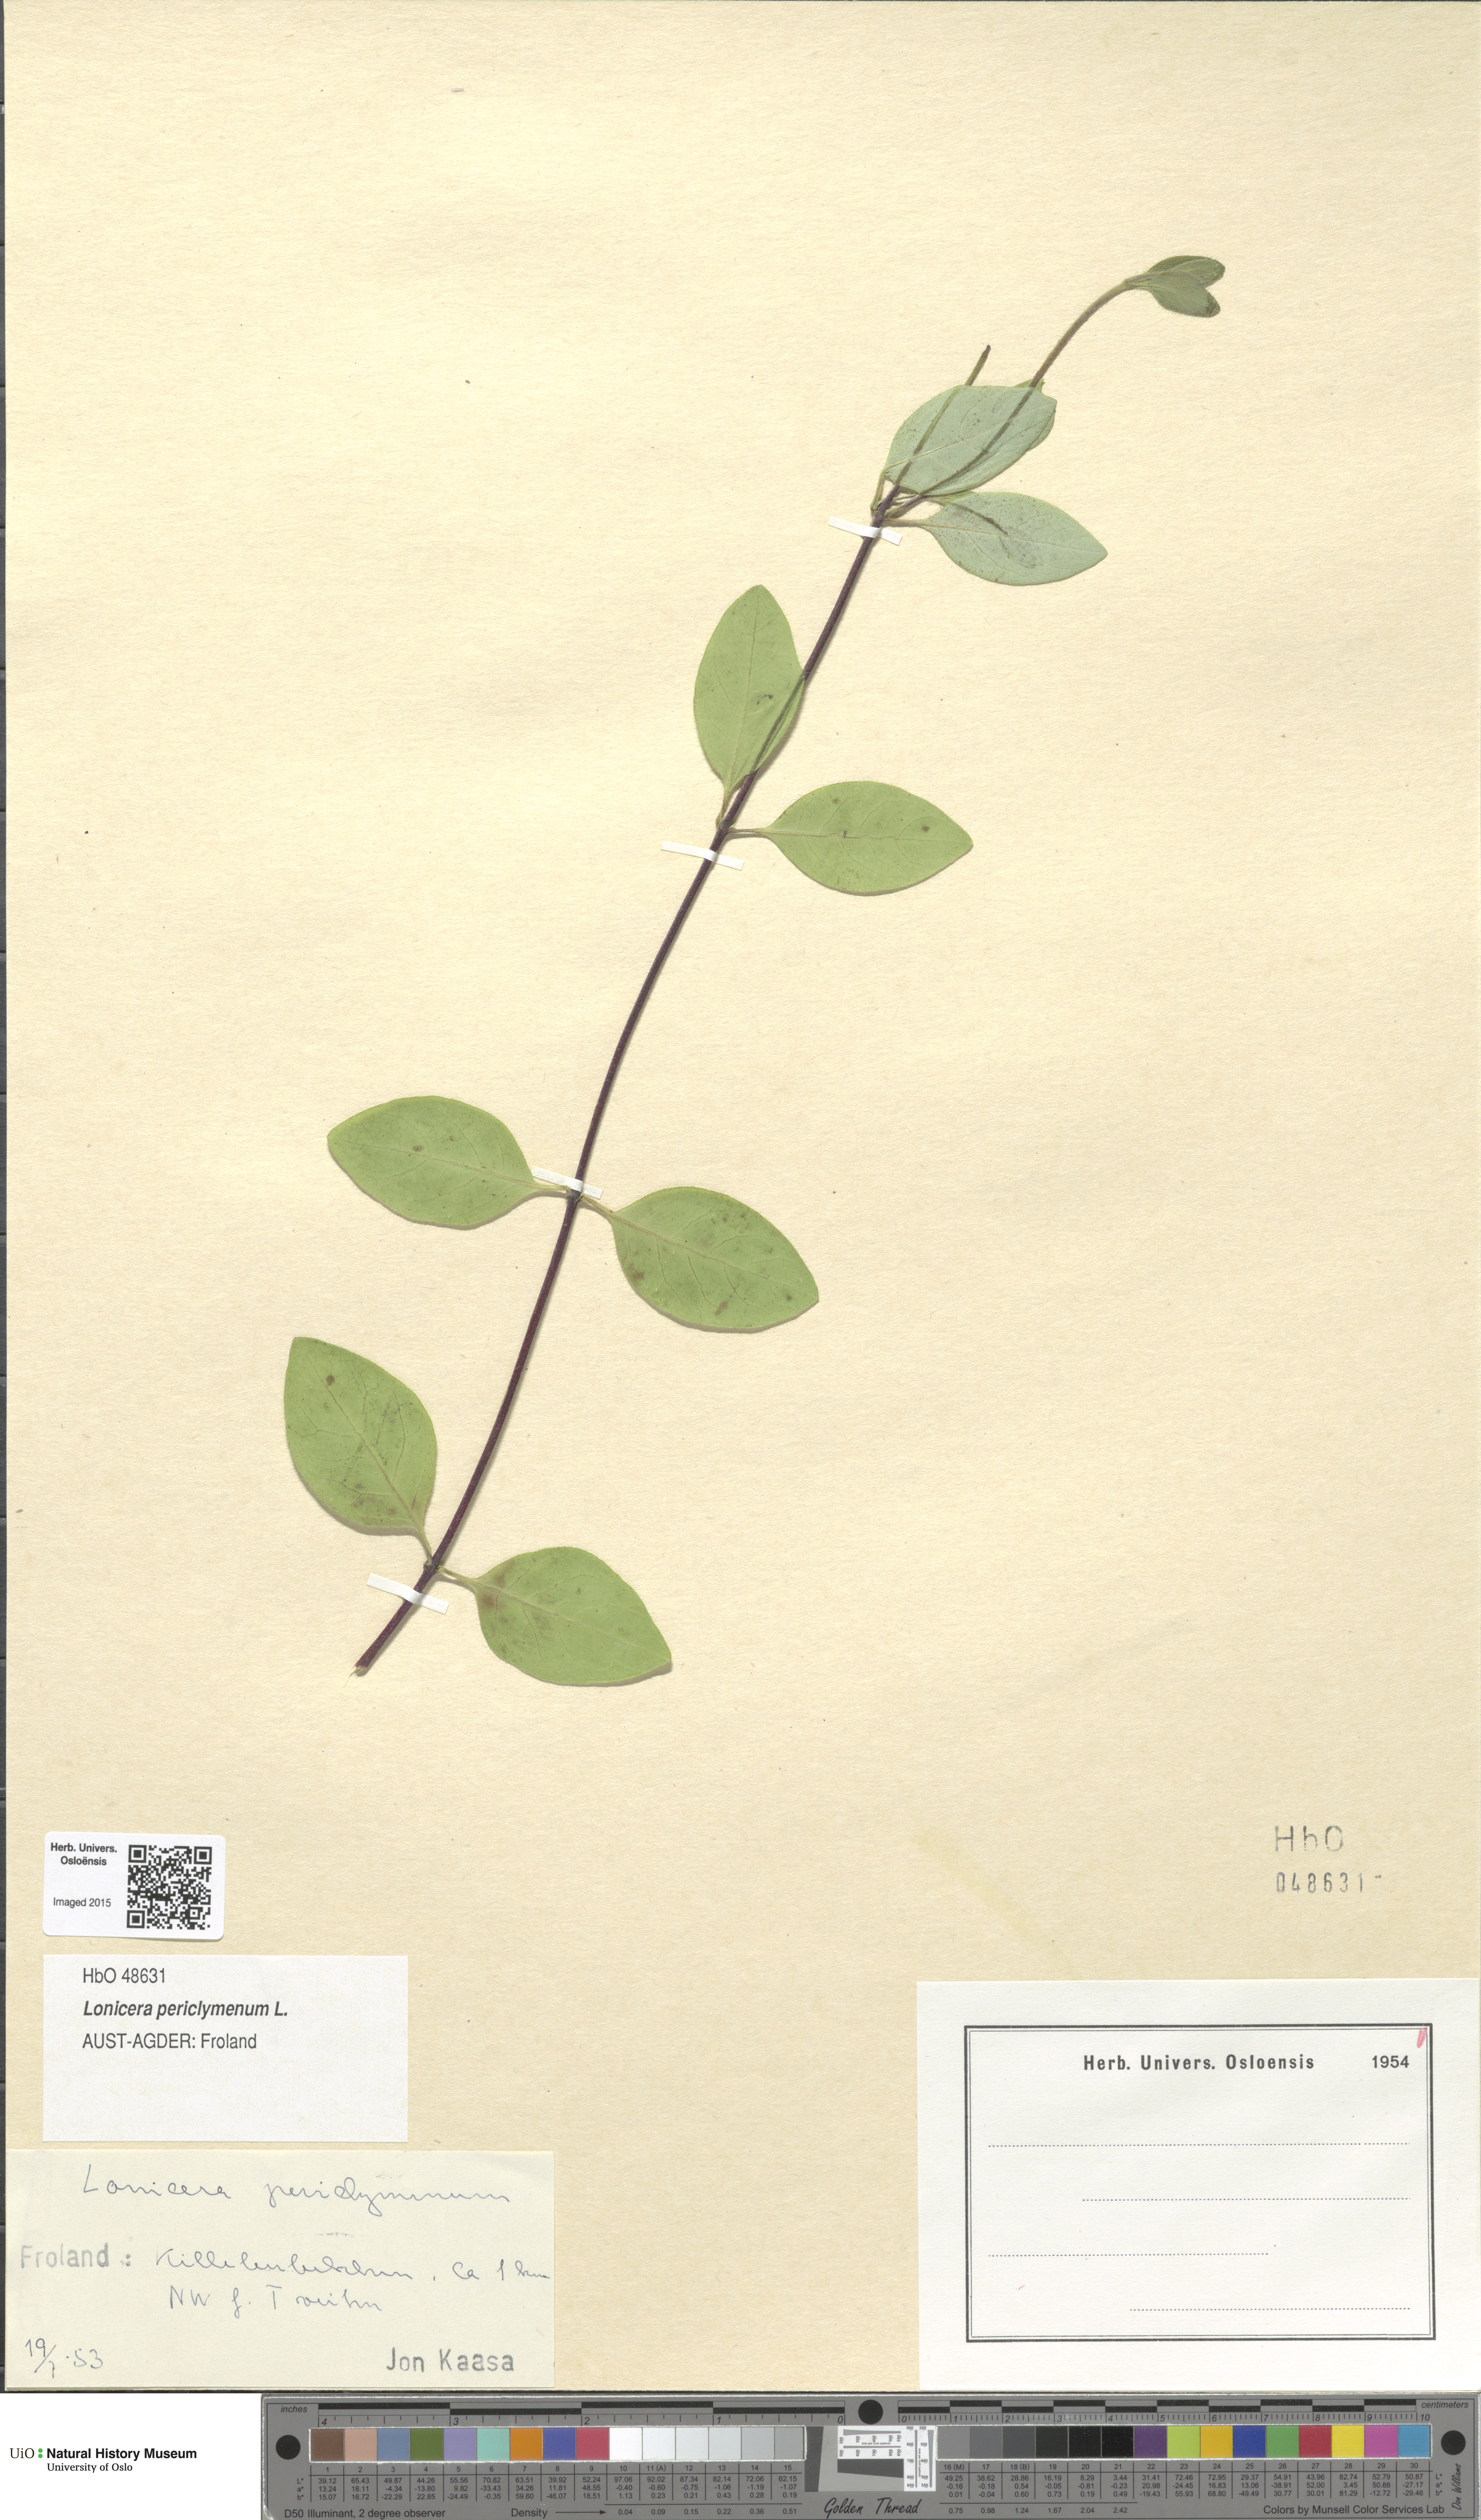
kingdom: Plantae
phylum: Tracheophyta
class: Magnoliopsida
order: Dipsacales
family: Caprifoliaceae
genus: Lonicera
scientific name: Lonicera periclymenum
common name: European honeysuckle
